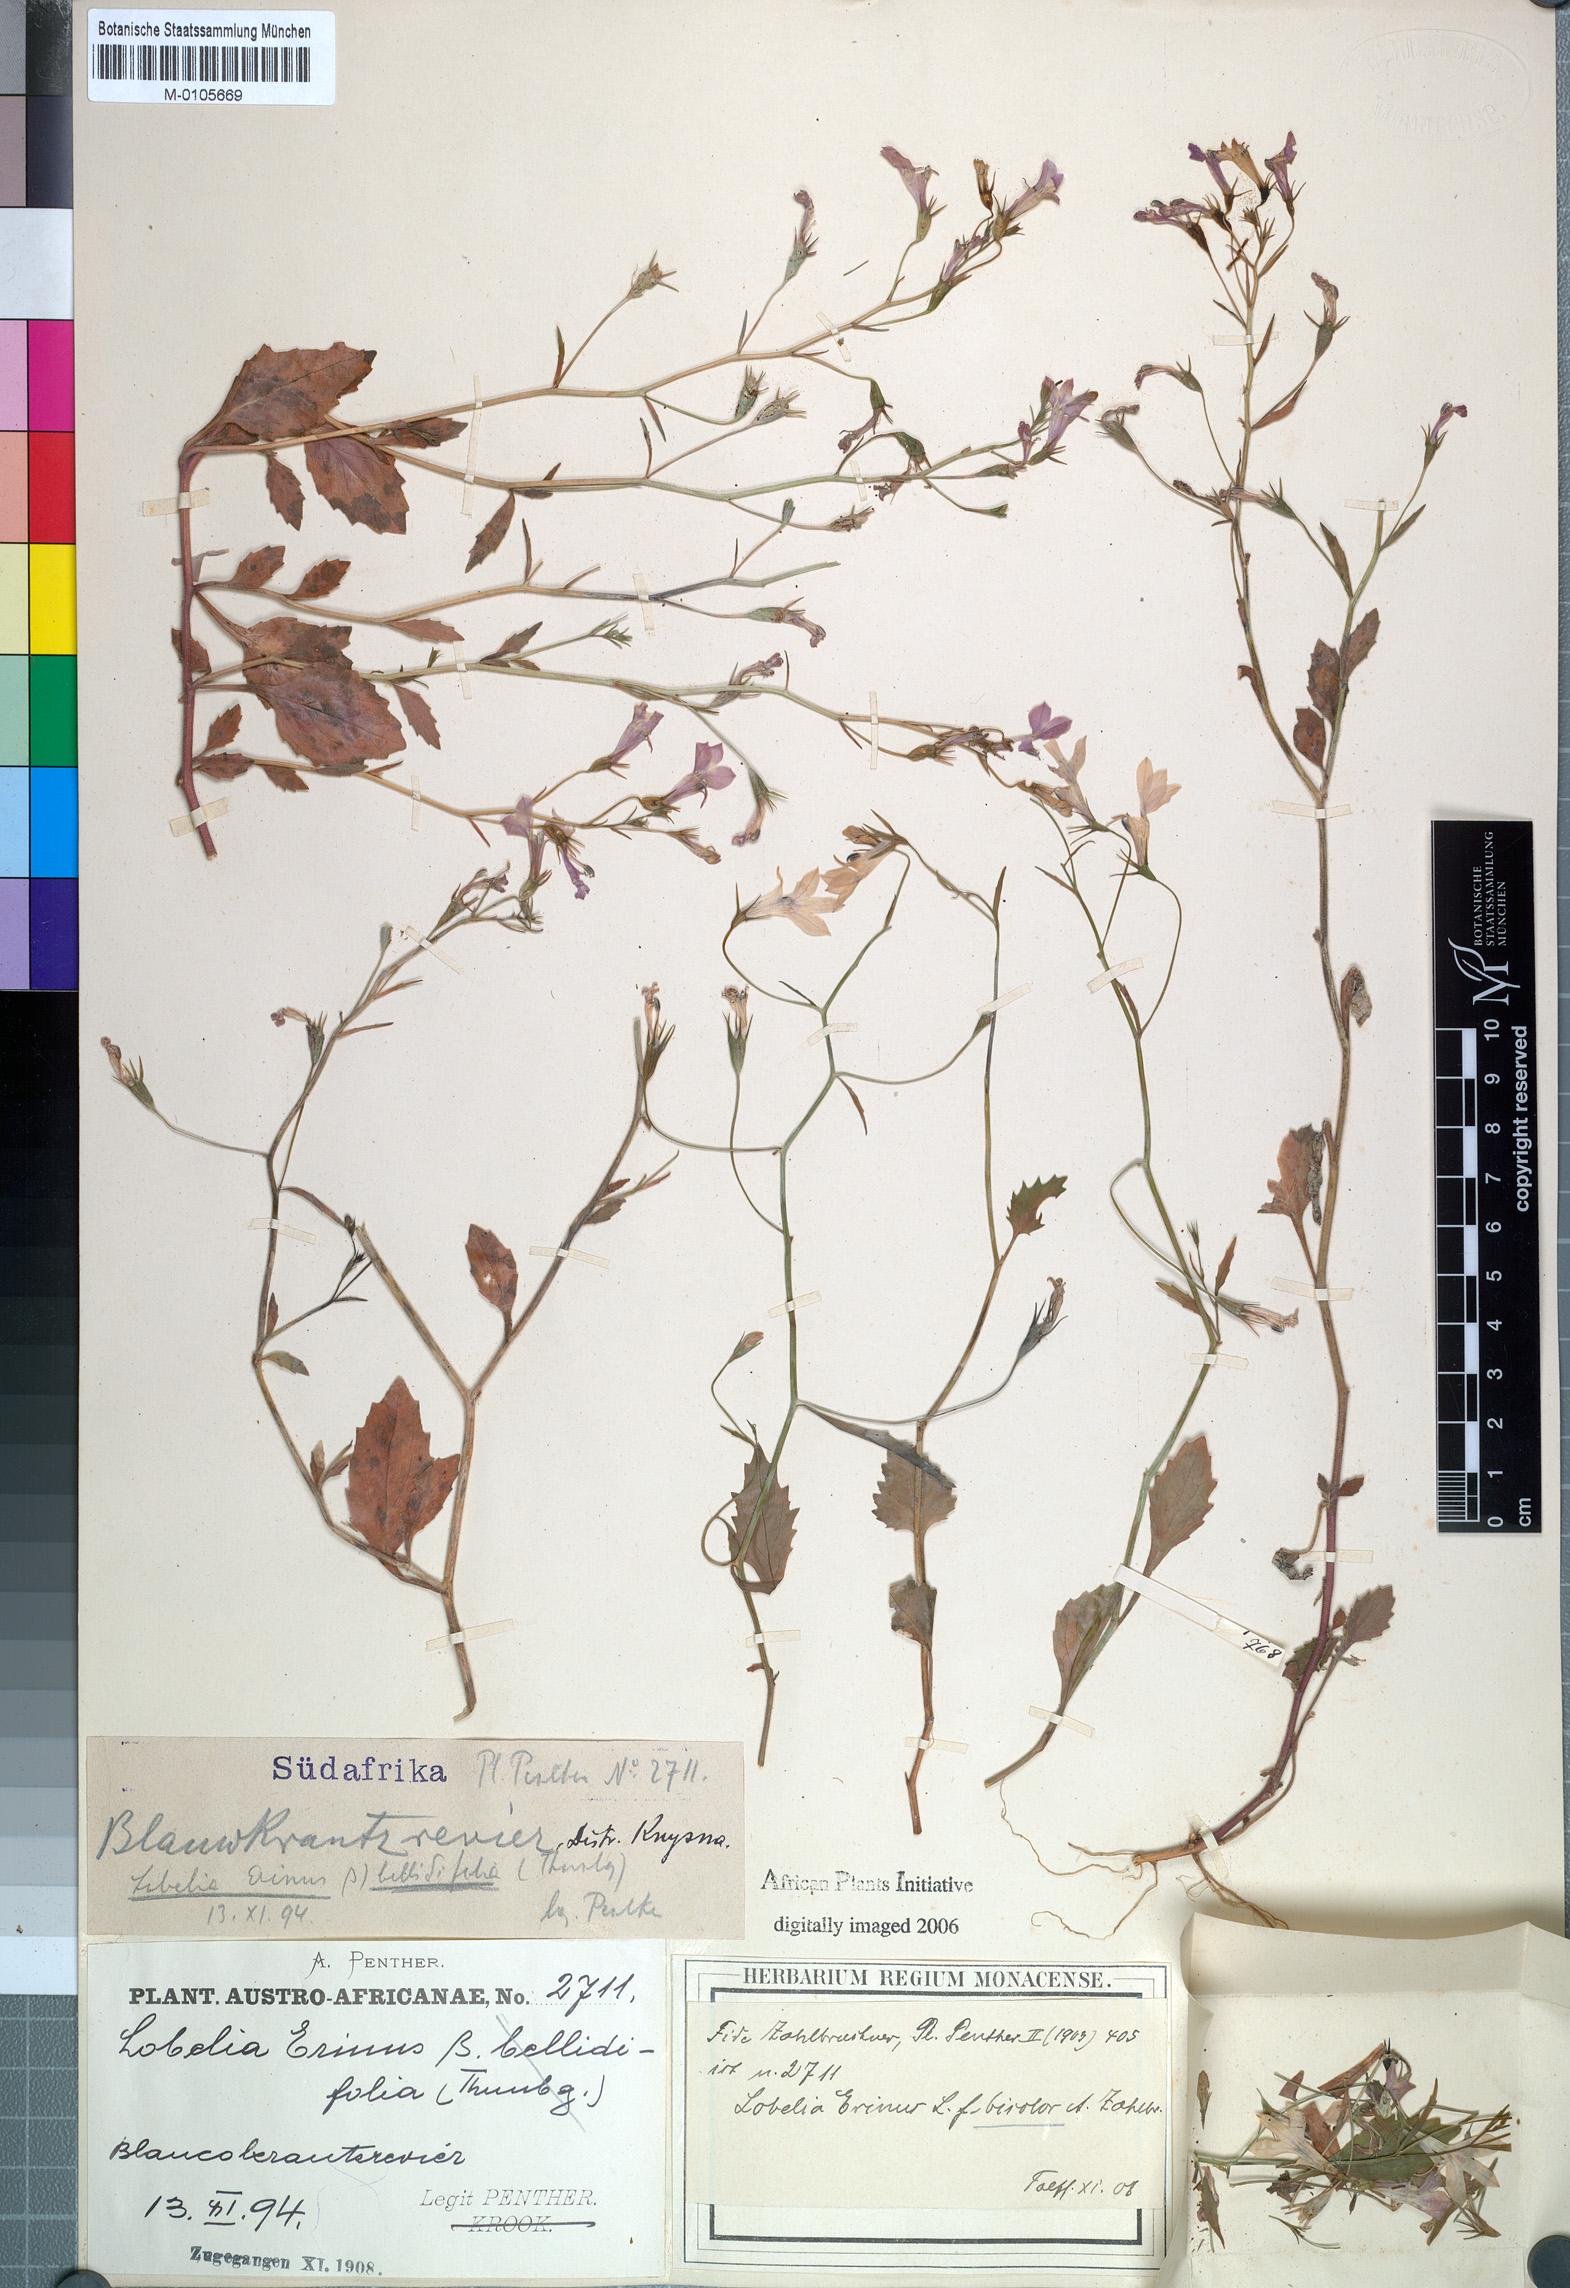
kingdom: Plantae
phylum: Tracheophyta
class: Magnoliopsida
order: Asterales
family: Campanulaceae
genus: Lobelia
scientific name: Lobelia erinus
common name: Edging lobelia
